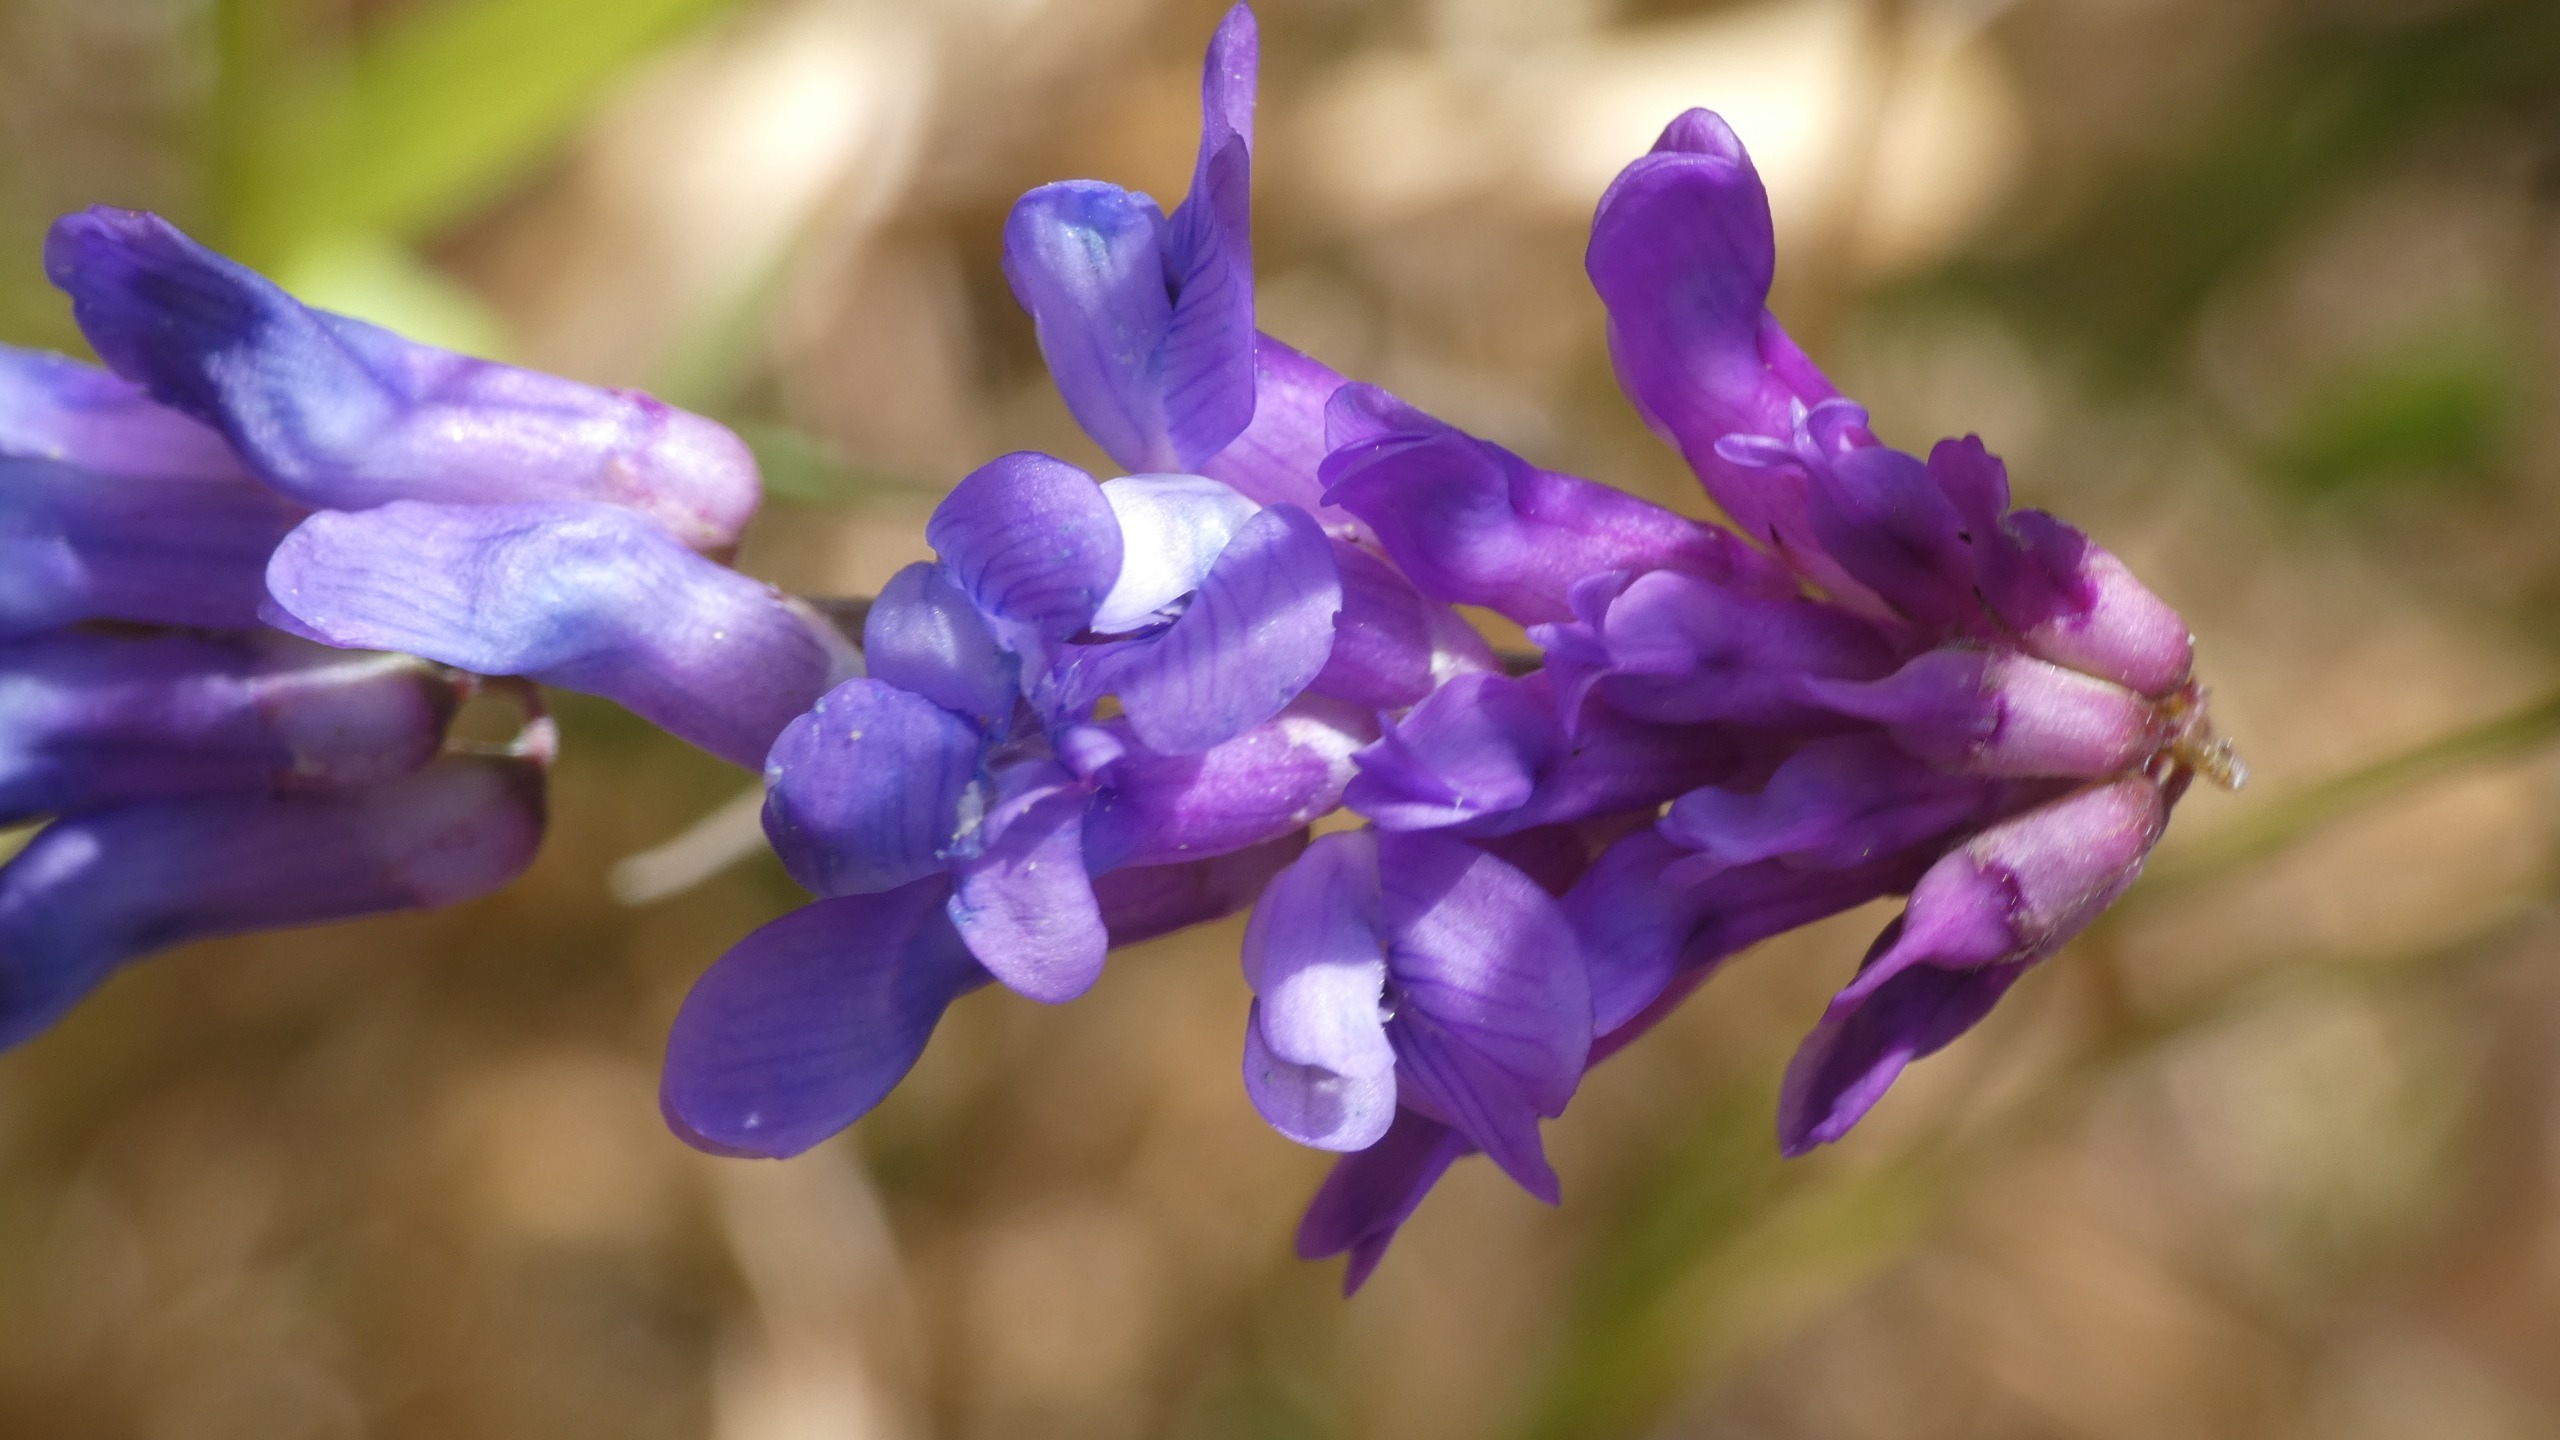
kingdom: Plantae
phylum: Tracheophyta
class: Magnoliopsida
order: Fabales
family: Fabaceae
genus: Vicia
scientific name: Vicia cracca
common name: Muse-vikke
